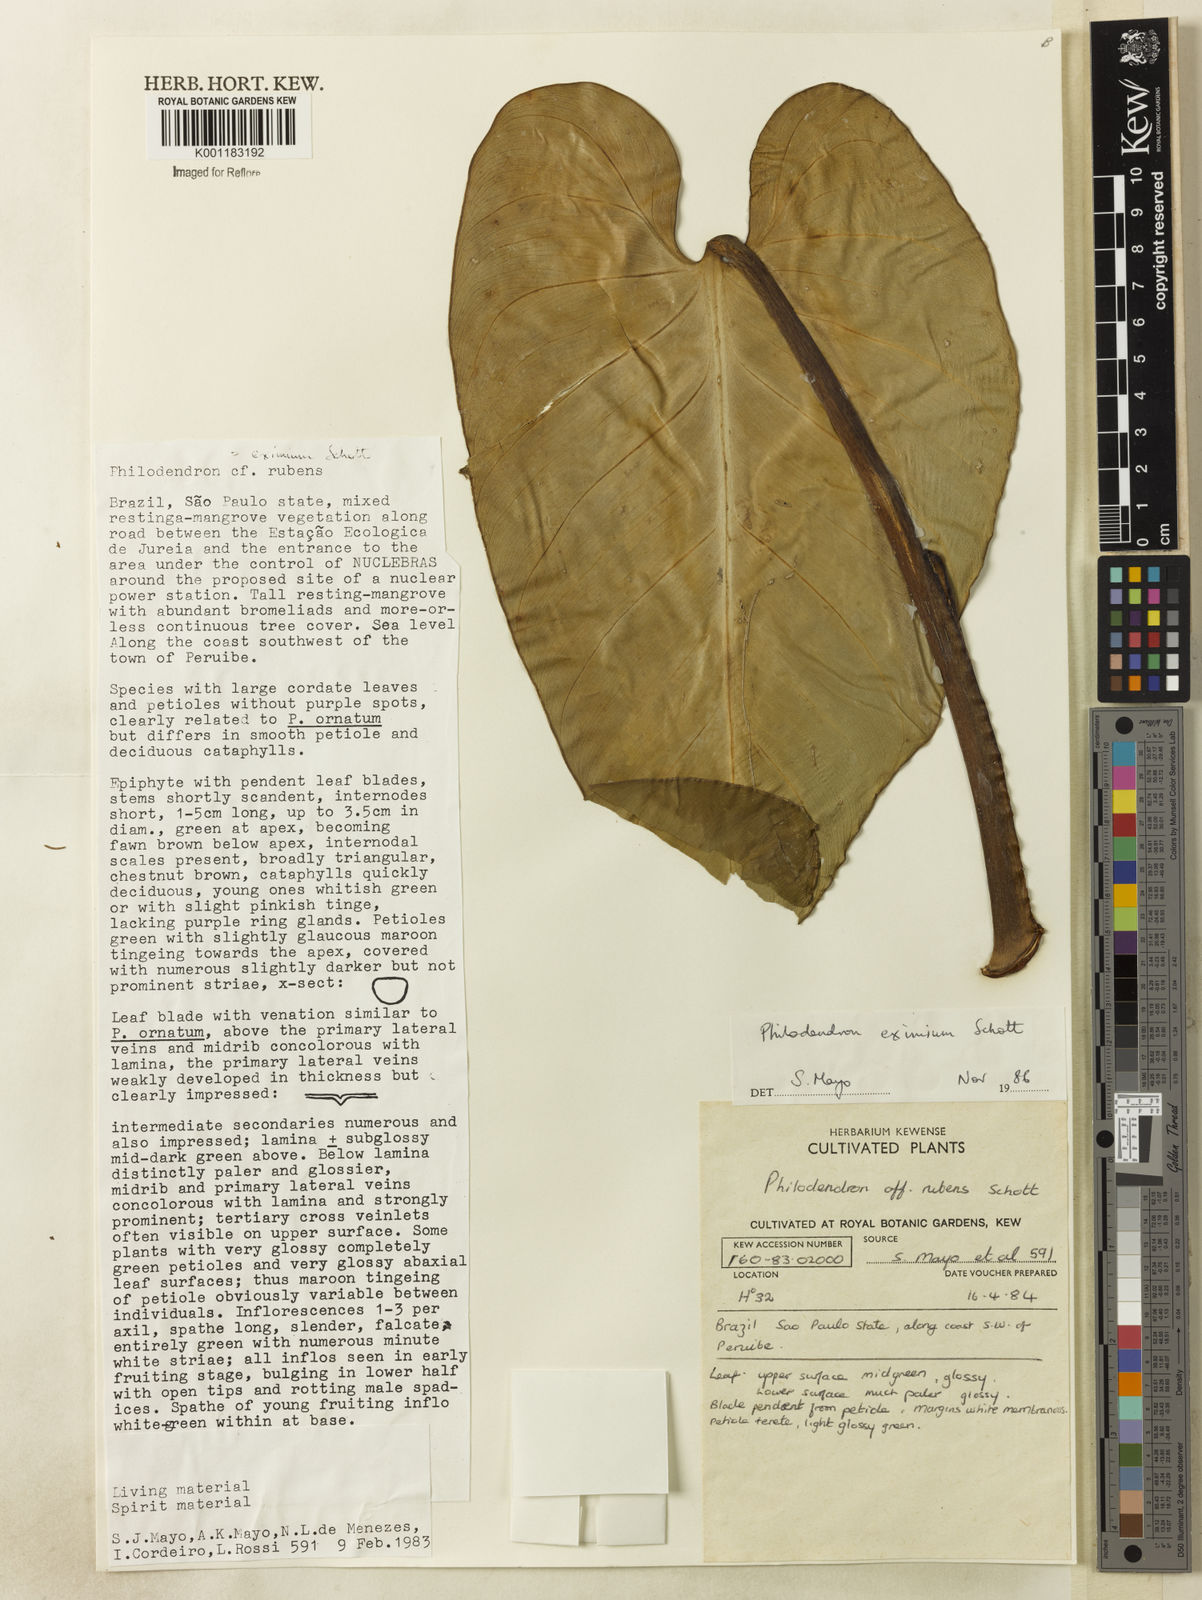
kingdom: Plantae
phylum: Tracheophyta
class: Liliopsida
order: Alismatales
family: Araceae
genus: Philodendron
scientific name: Philodendron eximium
